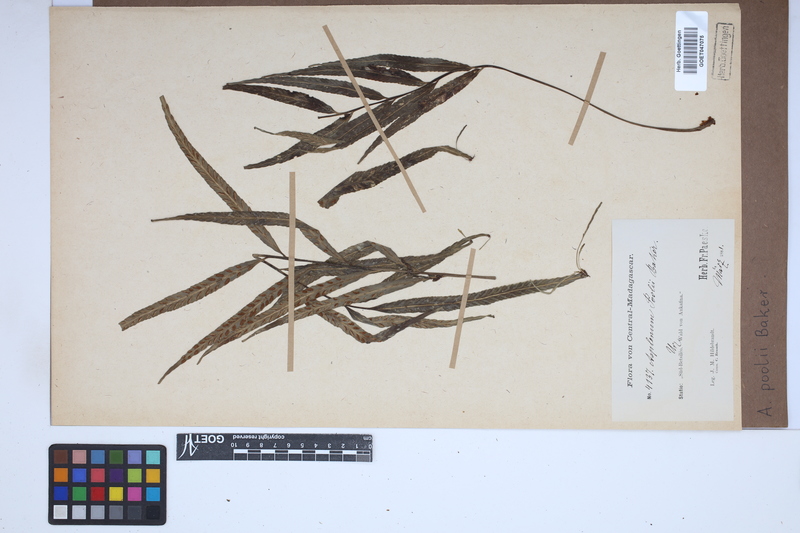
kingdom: Plantae
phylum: Tracheophyta
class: Polypodiopsida
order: Polypodiales
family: Aspleniaceae
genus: Asplenium
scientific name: Asplenium poolii
